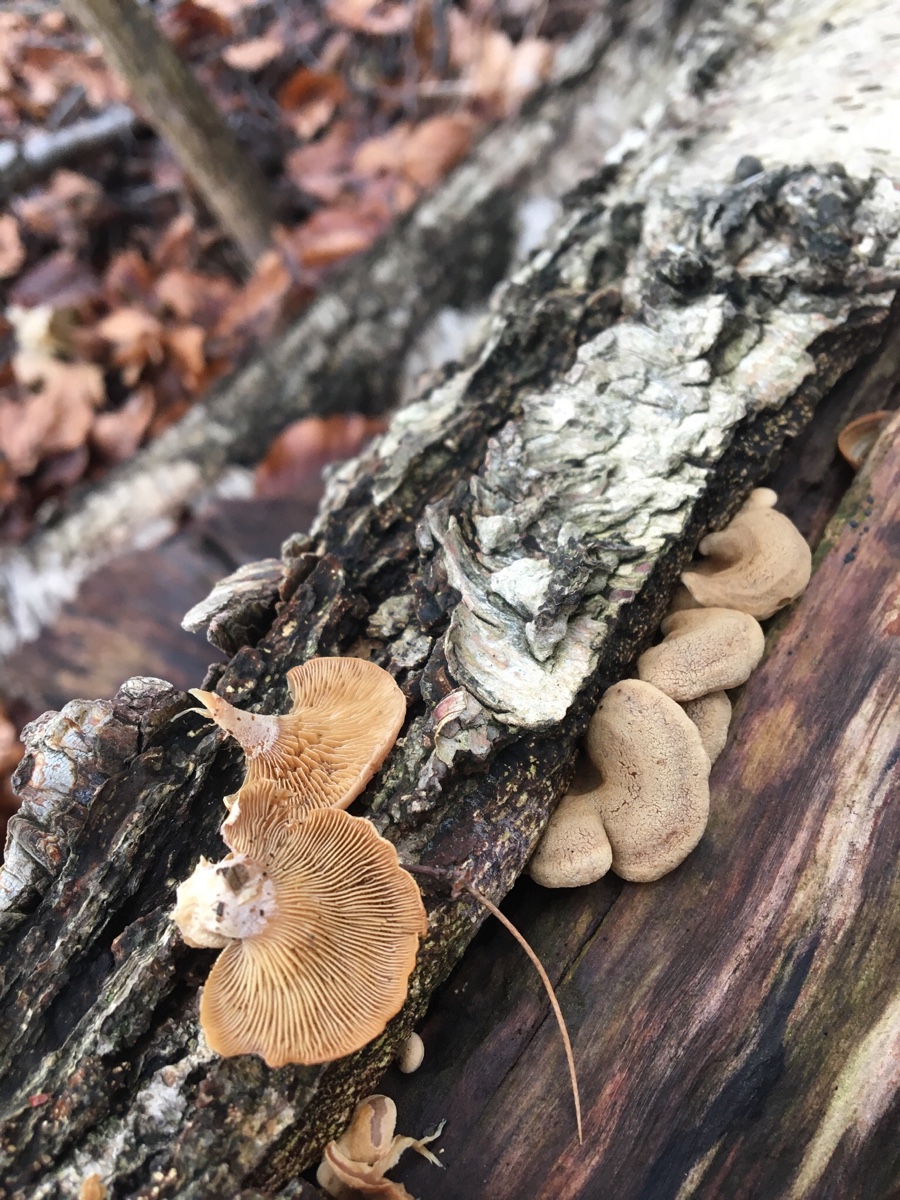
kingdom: Fungi
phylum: Basidiomycota
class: Agaricomycetes
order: Agaricales
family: Mycenaceae
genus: Panellus
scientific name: Panellus stipticus
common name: kliddet epaulethat
